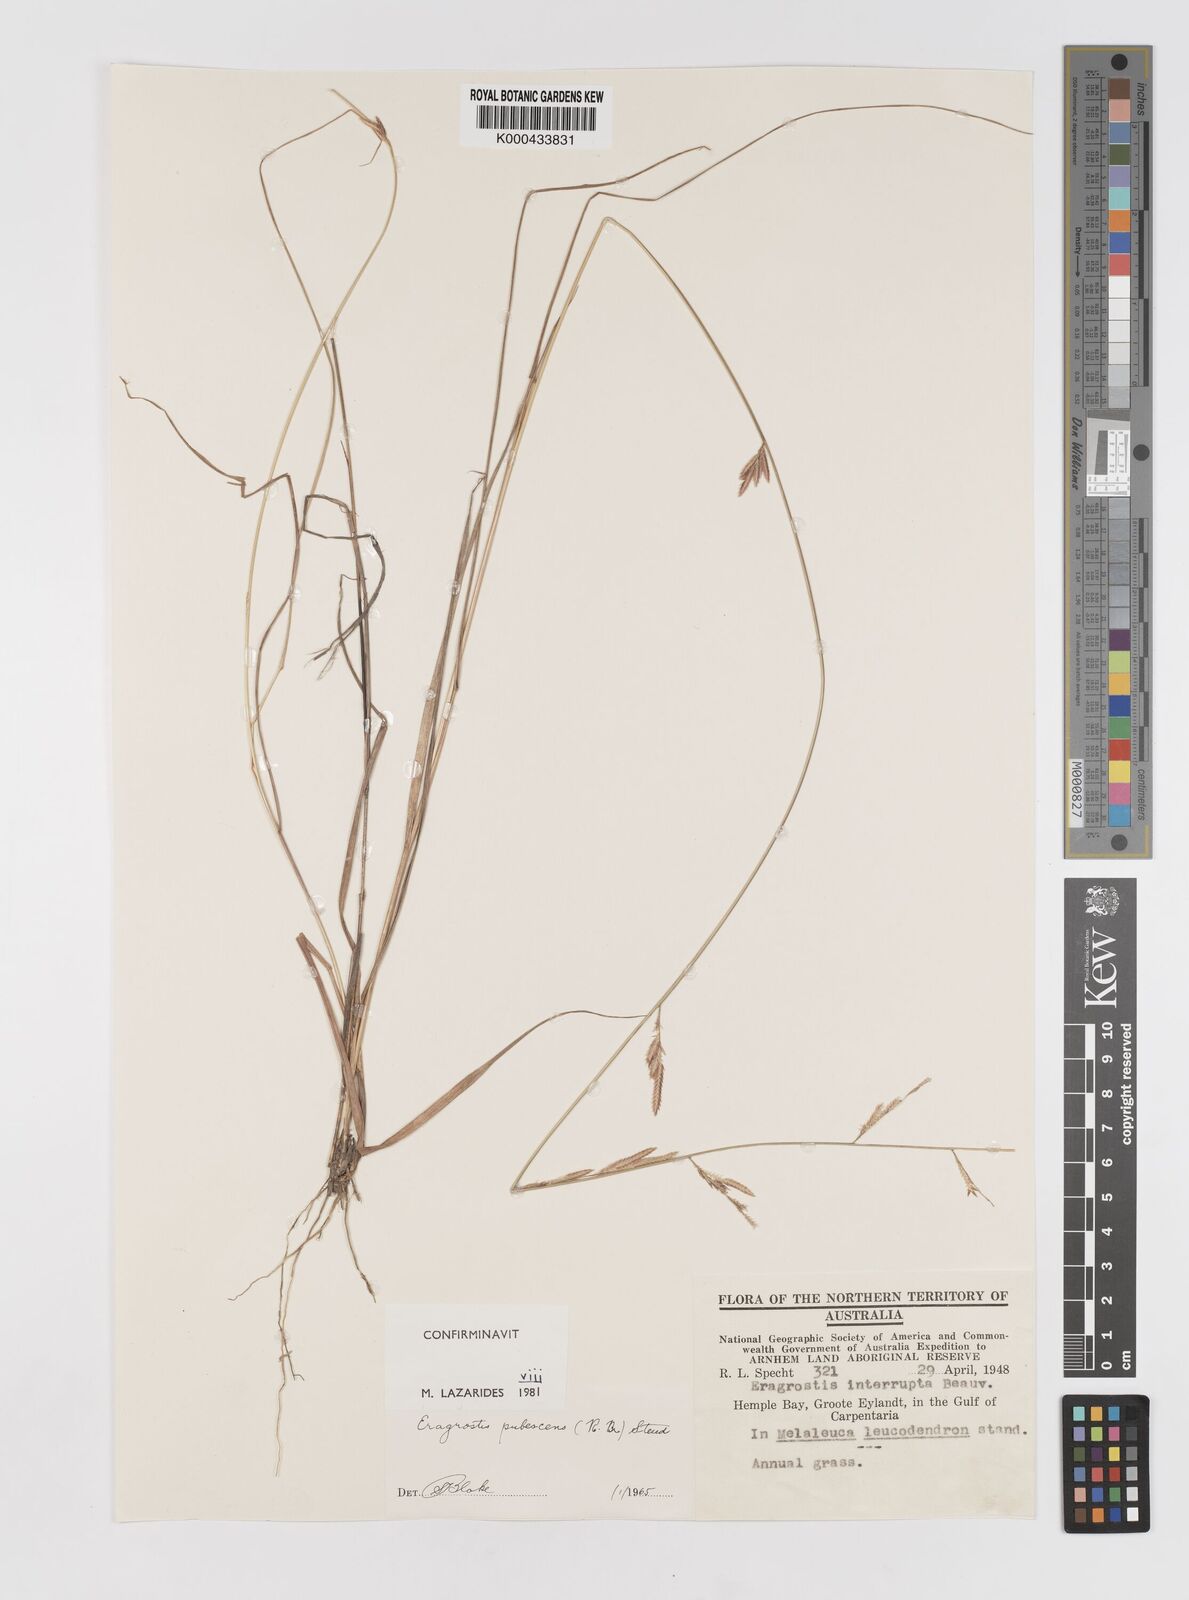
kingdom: Plantae
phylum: Tracheophyta
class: Liliopsida
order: Poales
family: Poaceae
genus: Eragrostis
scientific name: Eragrostis pubescens
